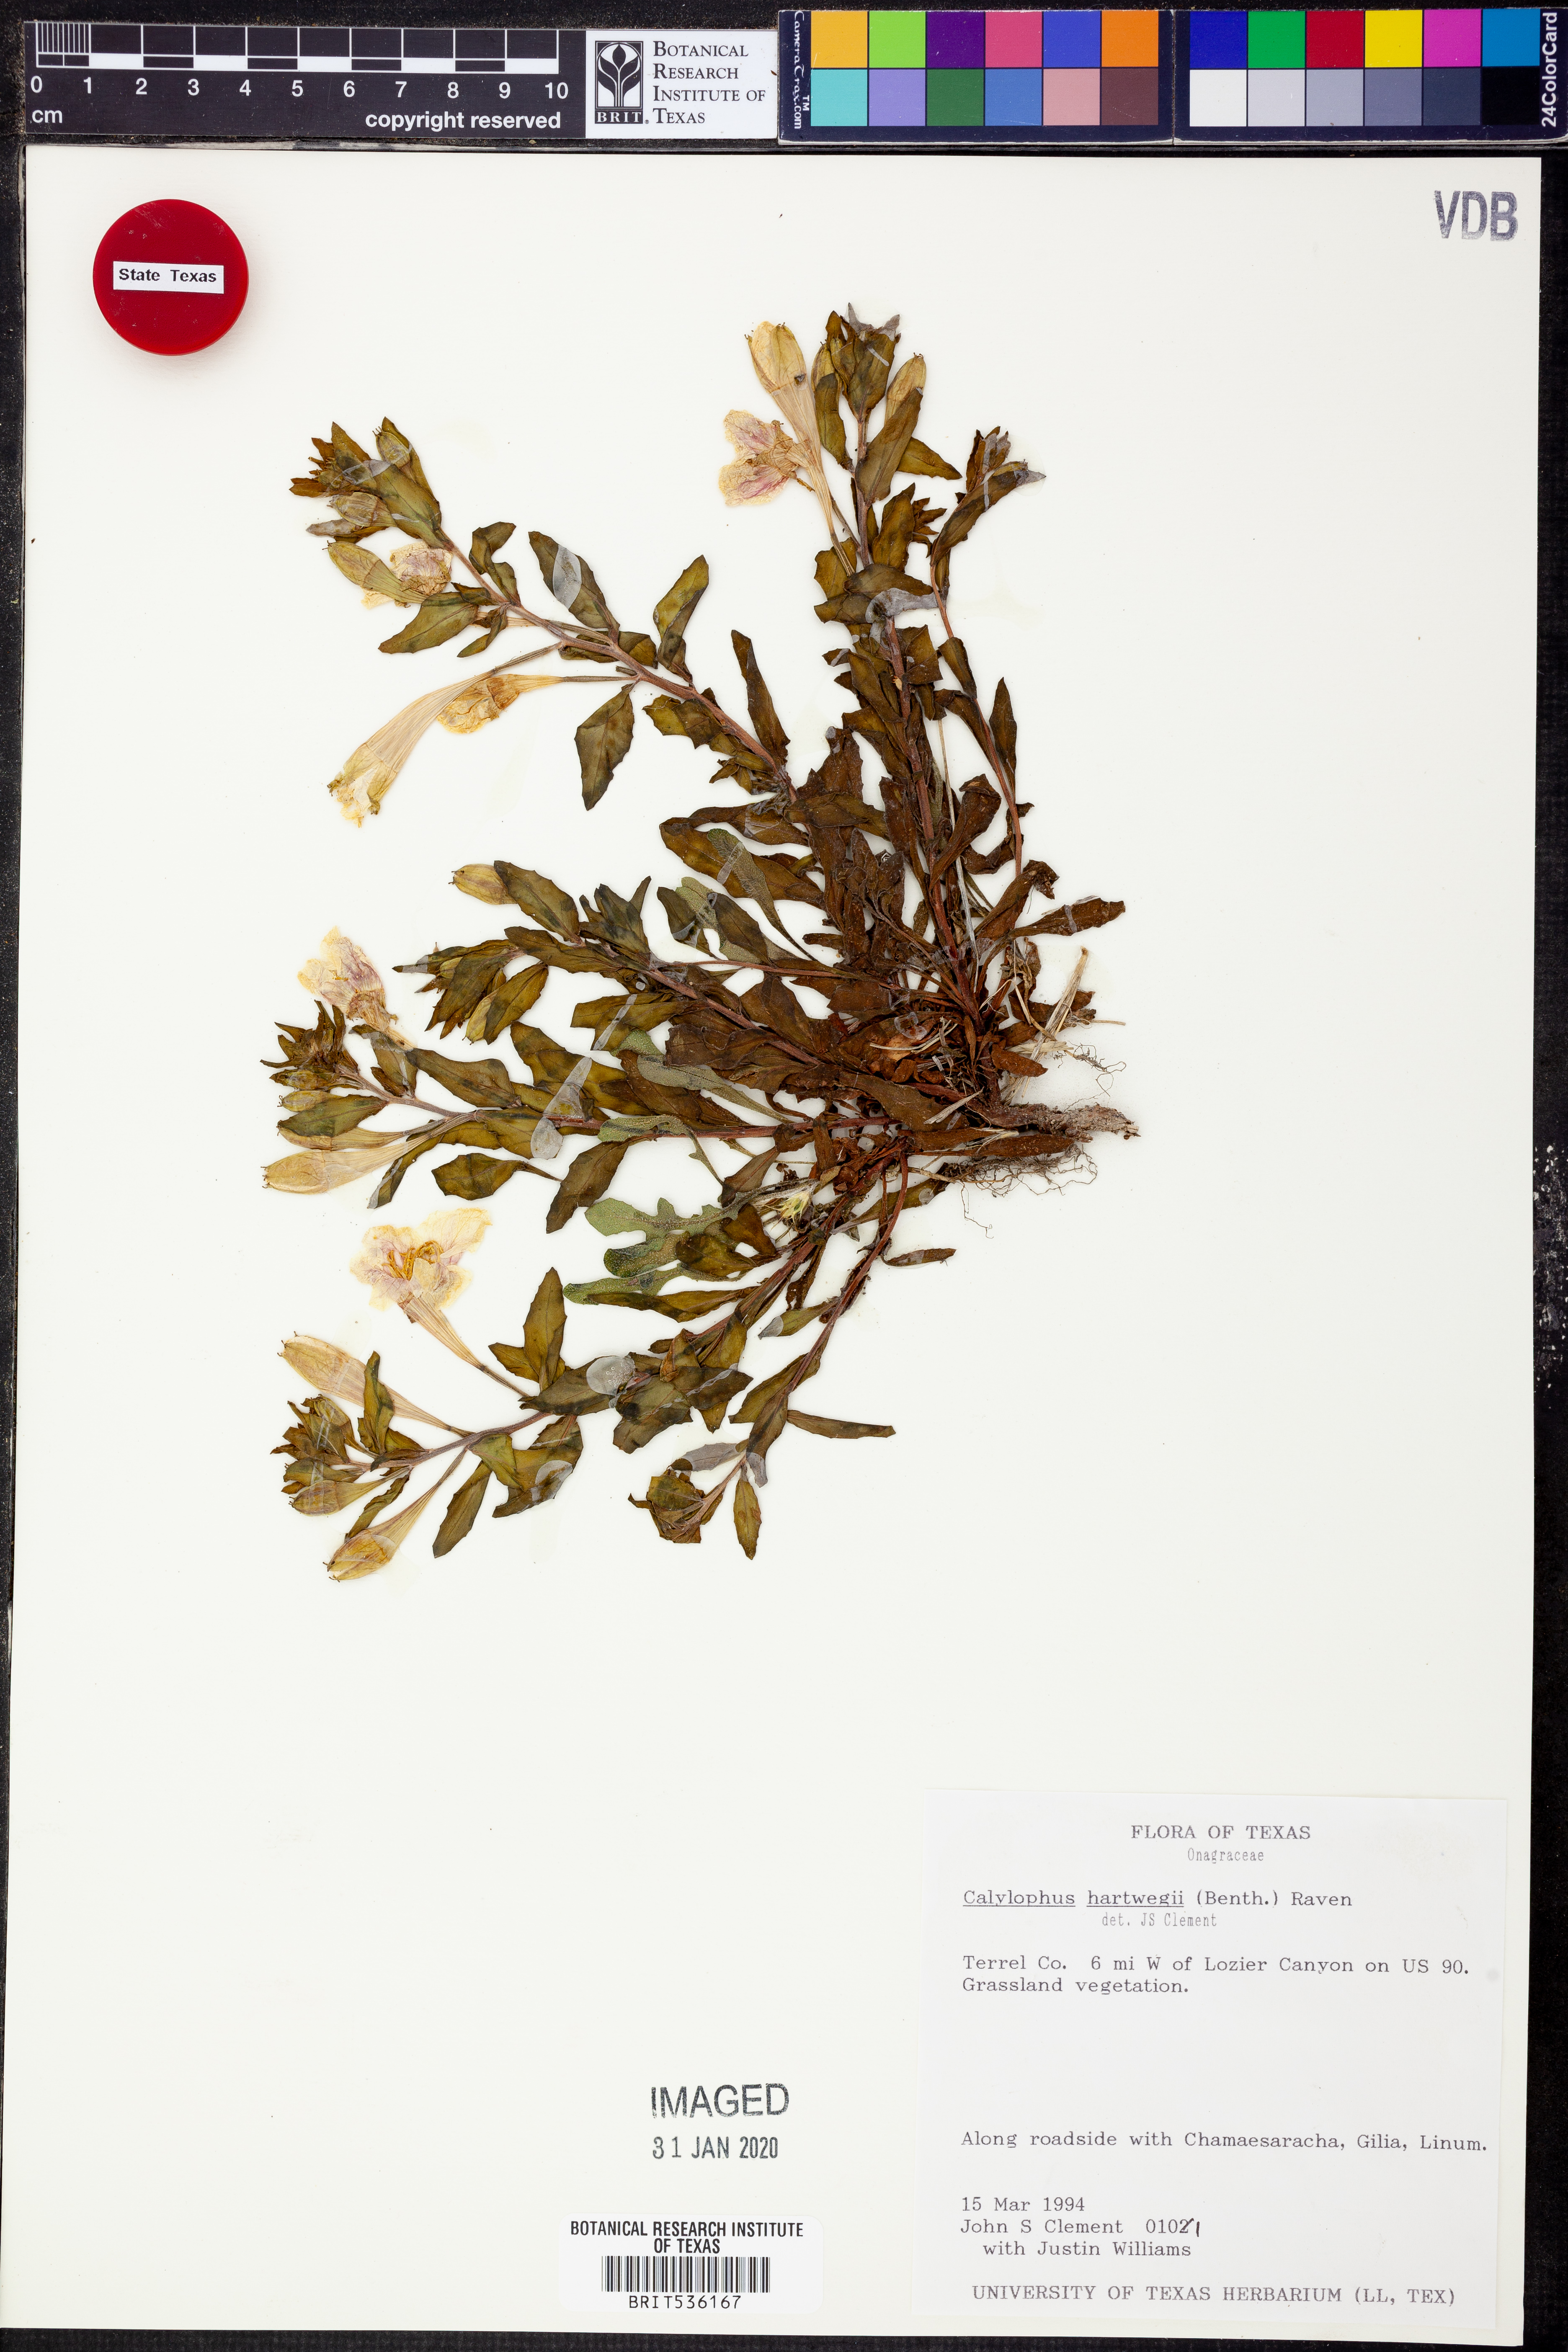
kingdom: Plantae
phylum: Tracheophyta
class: Magnoliopsida
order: Myrtales
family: Onagraceae
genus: Oenothera
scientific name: Oenothera hartwegii
